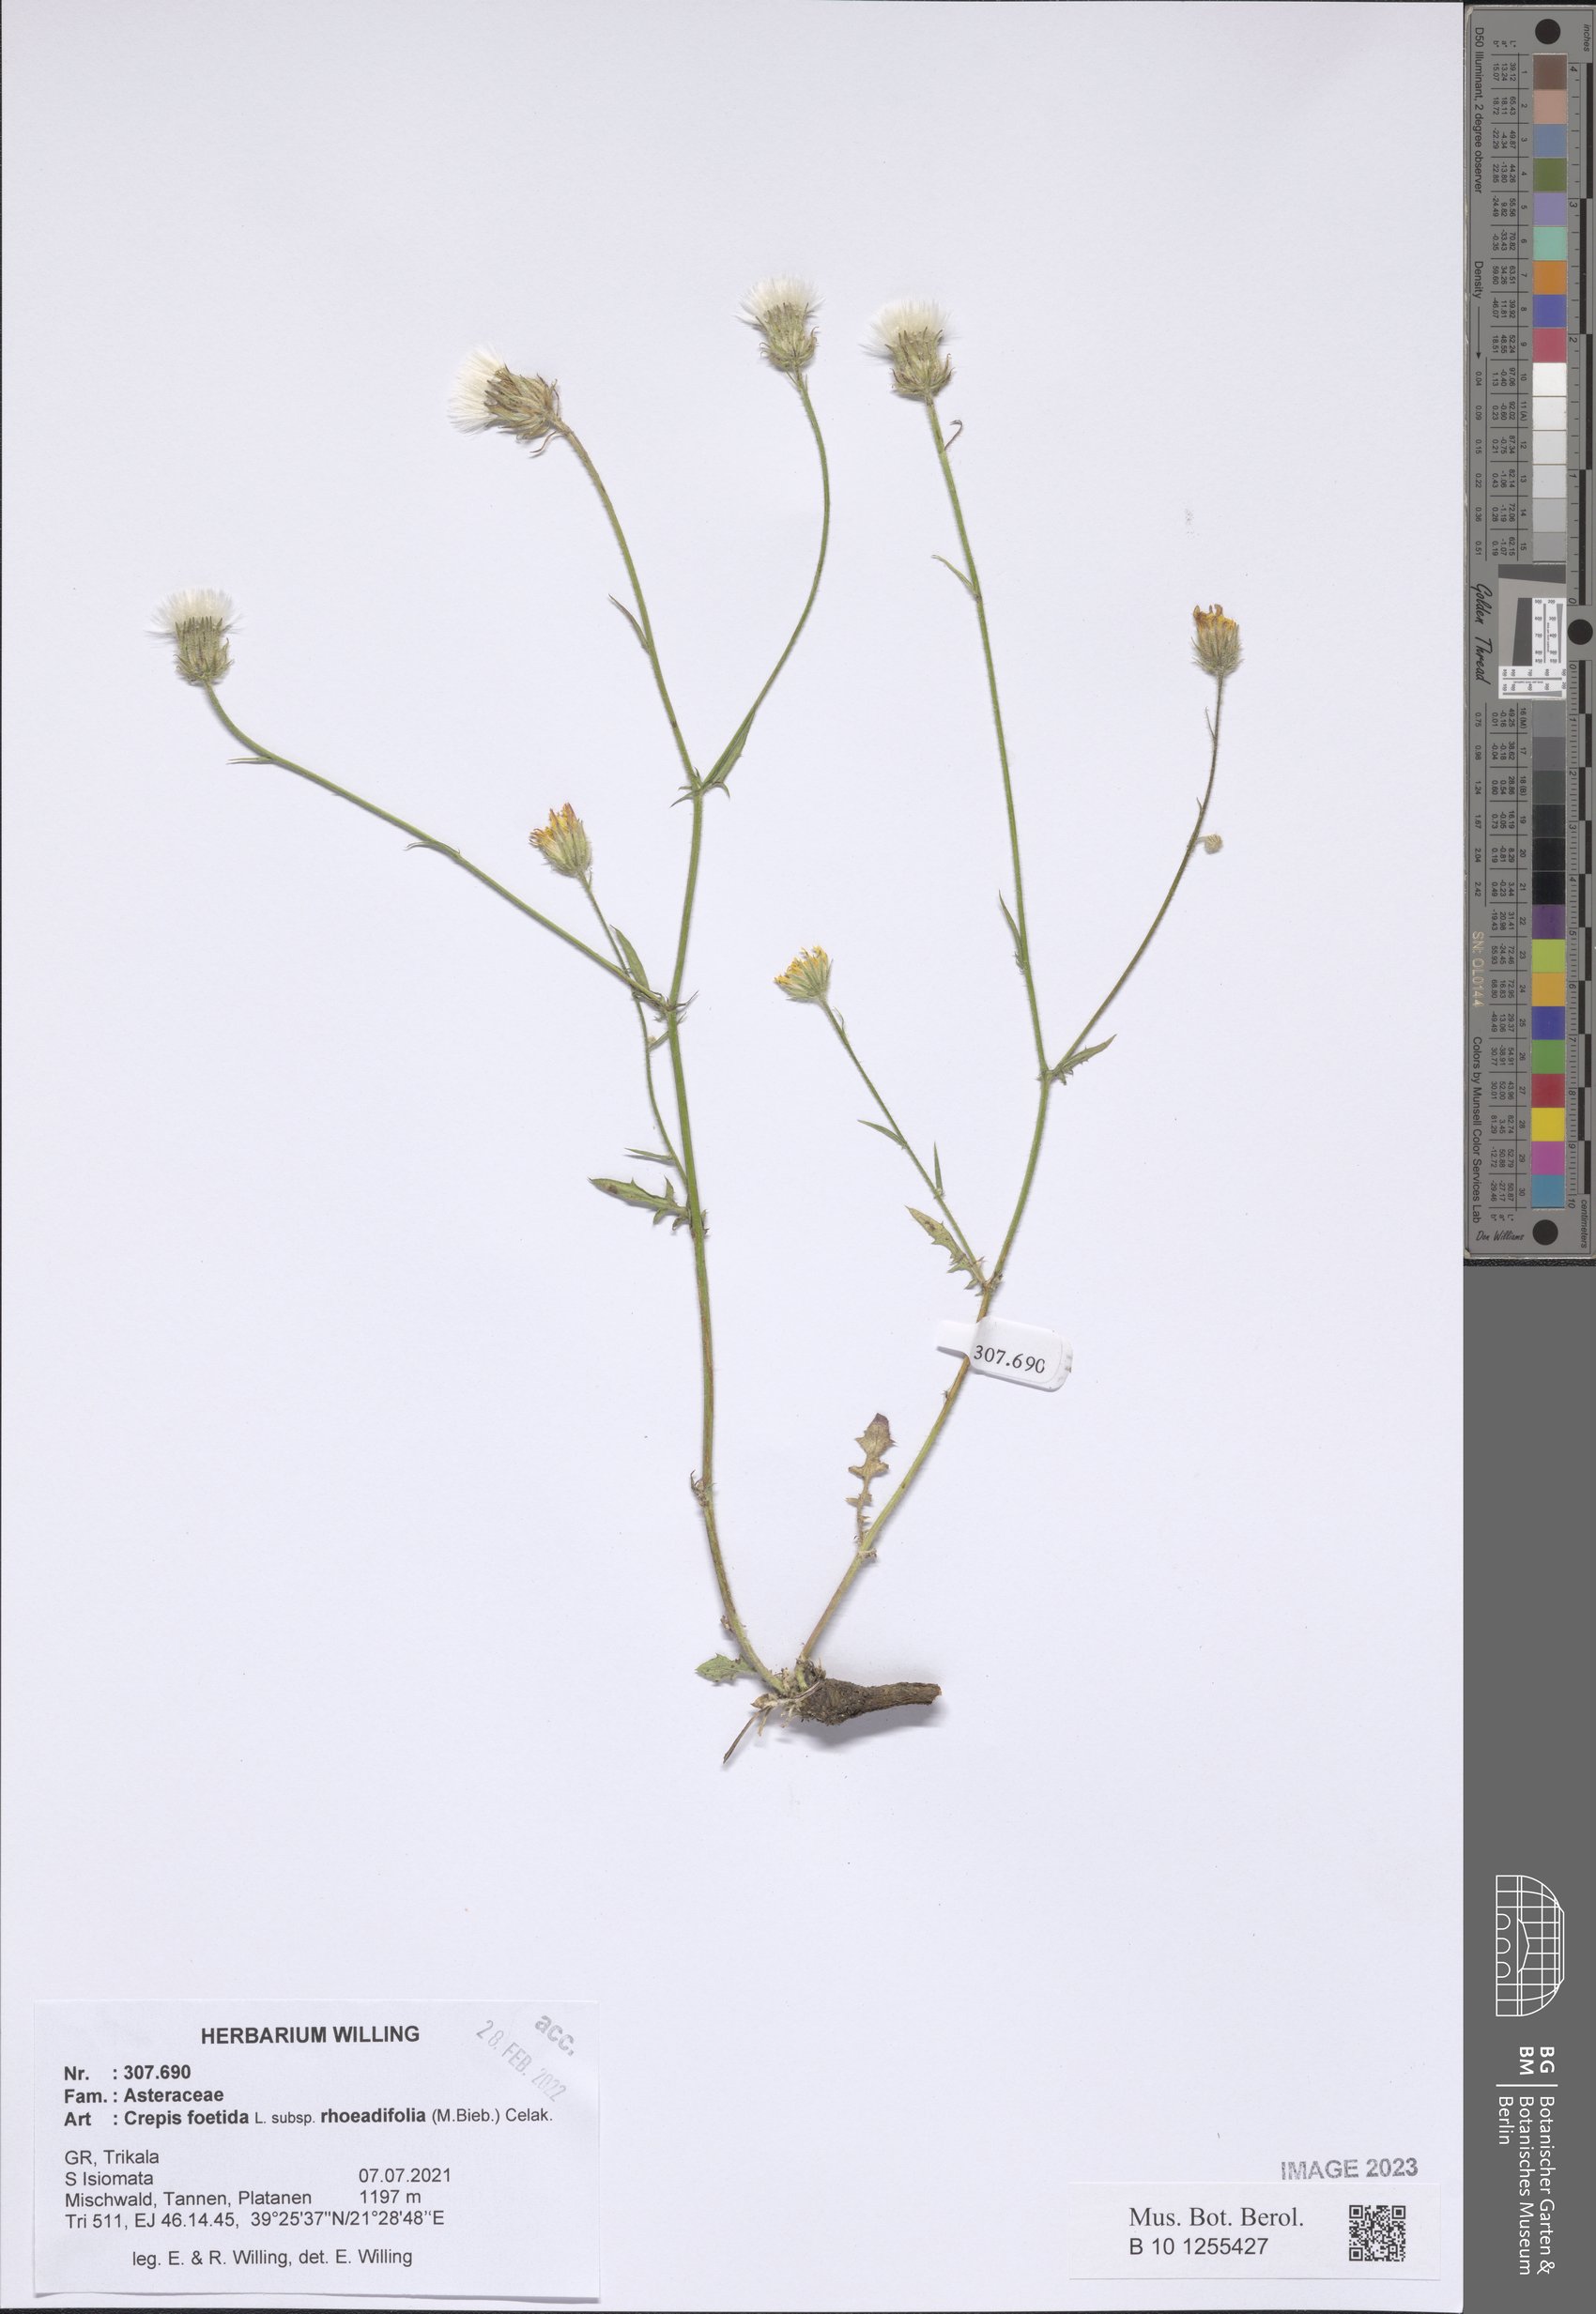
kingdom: Plantae
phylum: Tracheophyta
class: Magnoliopsida
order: Asterales
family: Asteraceae
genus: Crepis
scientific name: Crepis foetida
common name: Stinking hawk's-beard
